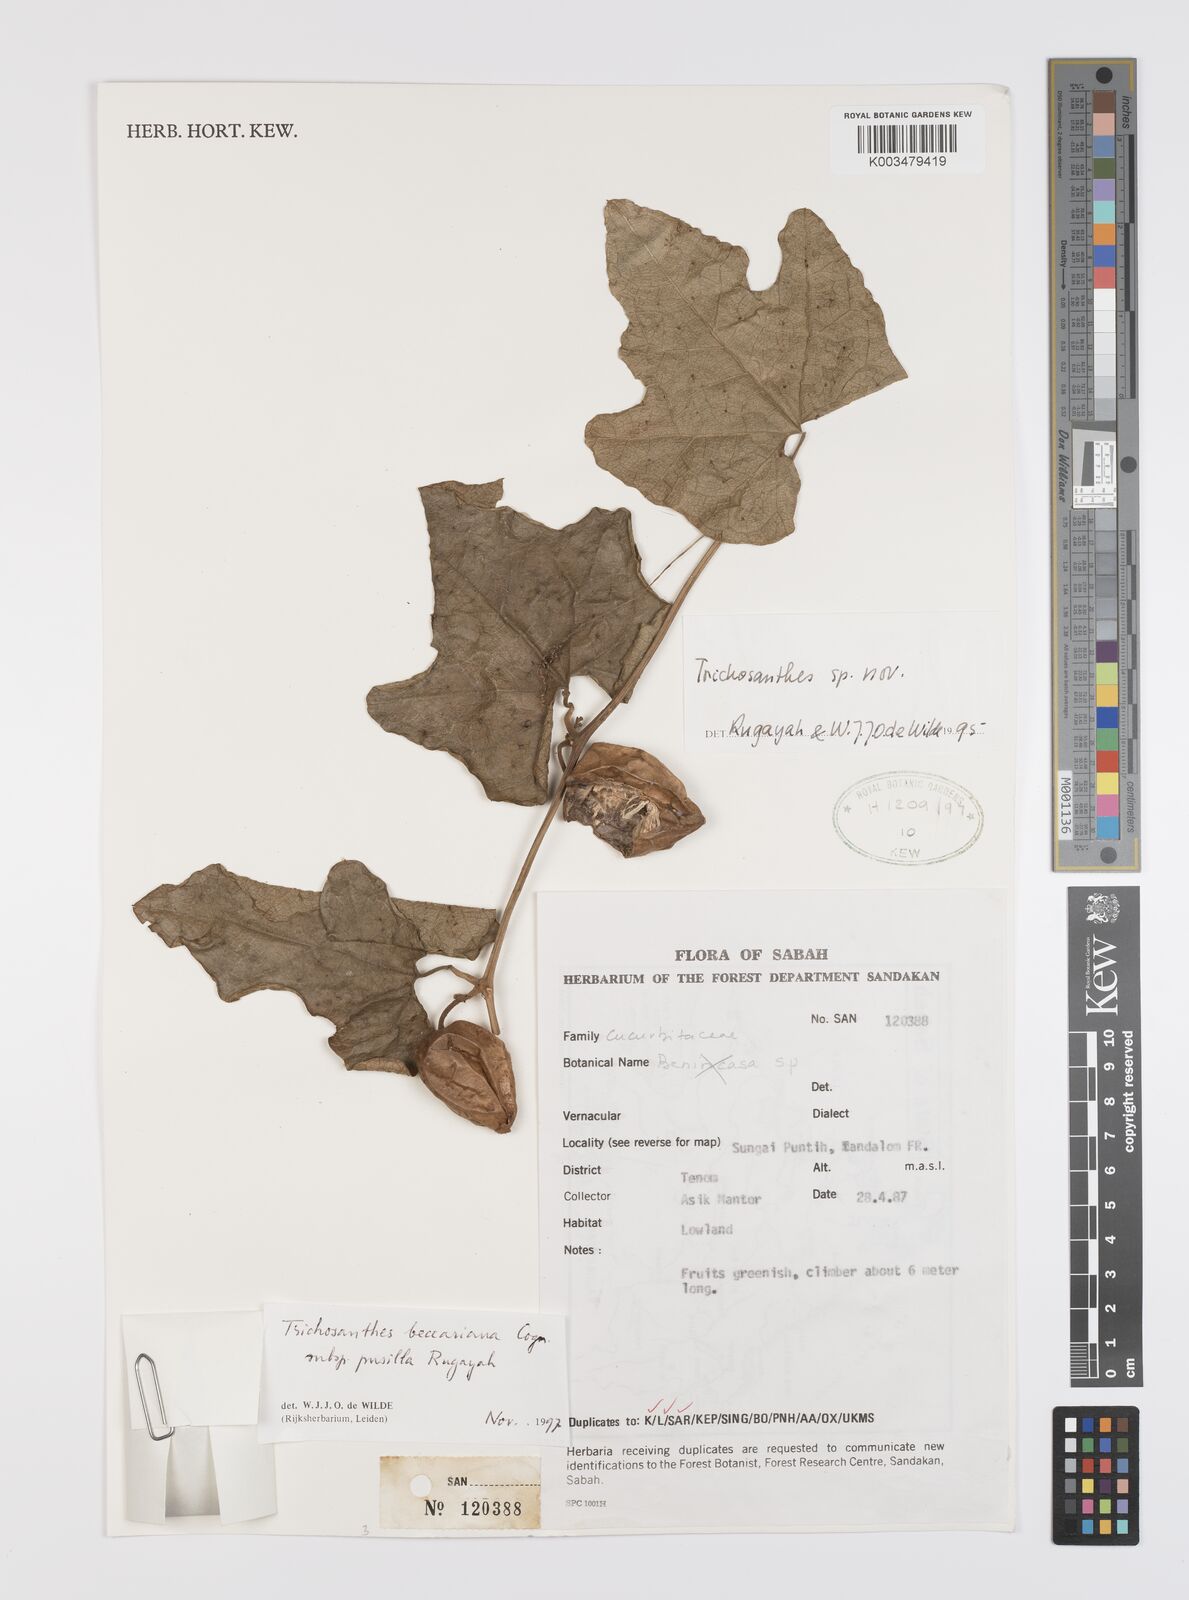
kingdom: Plantae
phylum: Tracheophyta
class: Magnoliopsida
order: Cucurbitales
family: Cucurbitaceae
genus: Trichosanthes
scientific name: Trichosanthes beccariana
